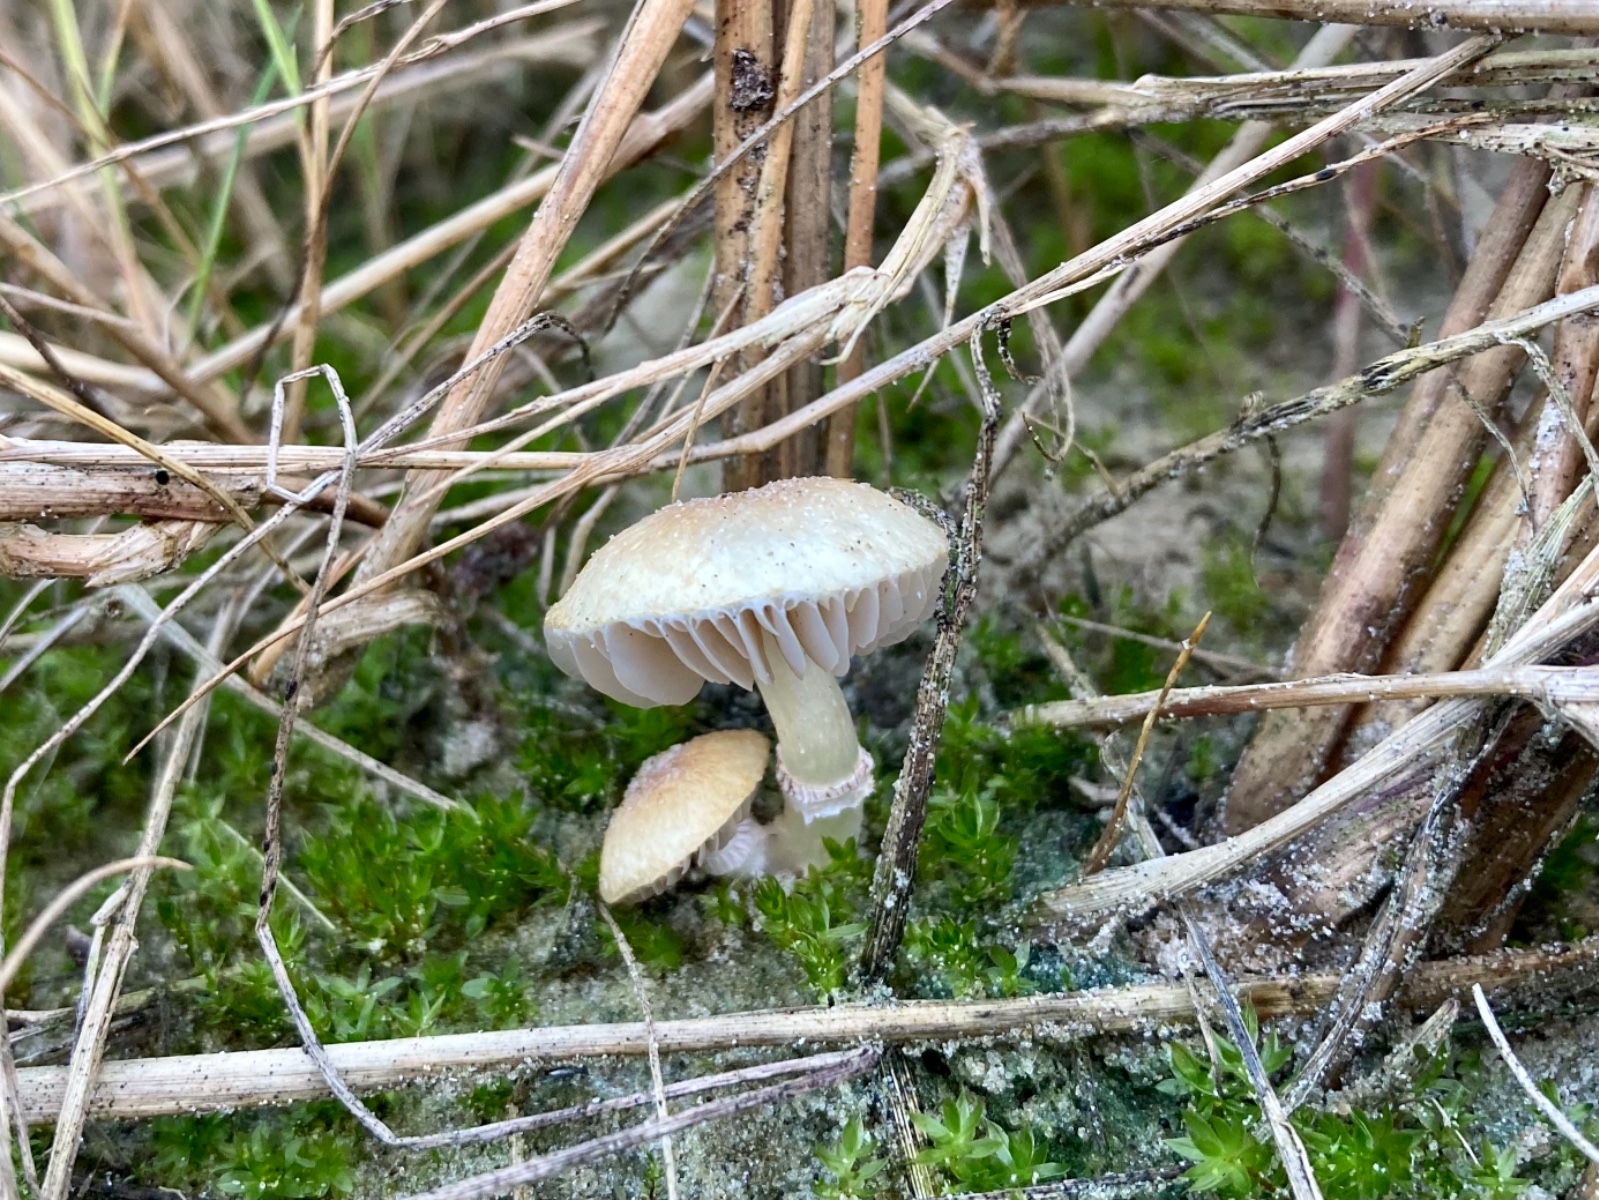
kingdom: Fungi
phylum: Basidiomycota
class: Agaricomycetes
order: Agaricales
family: Hymenogastraceae
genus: Psilocybe
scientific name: Psilocybe coronilla
